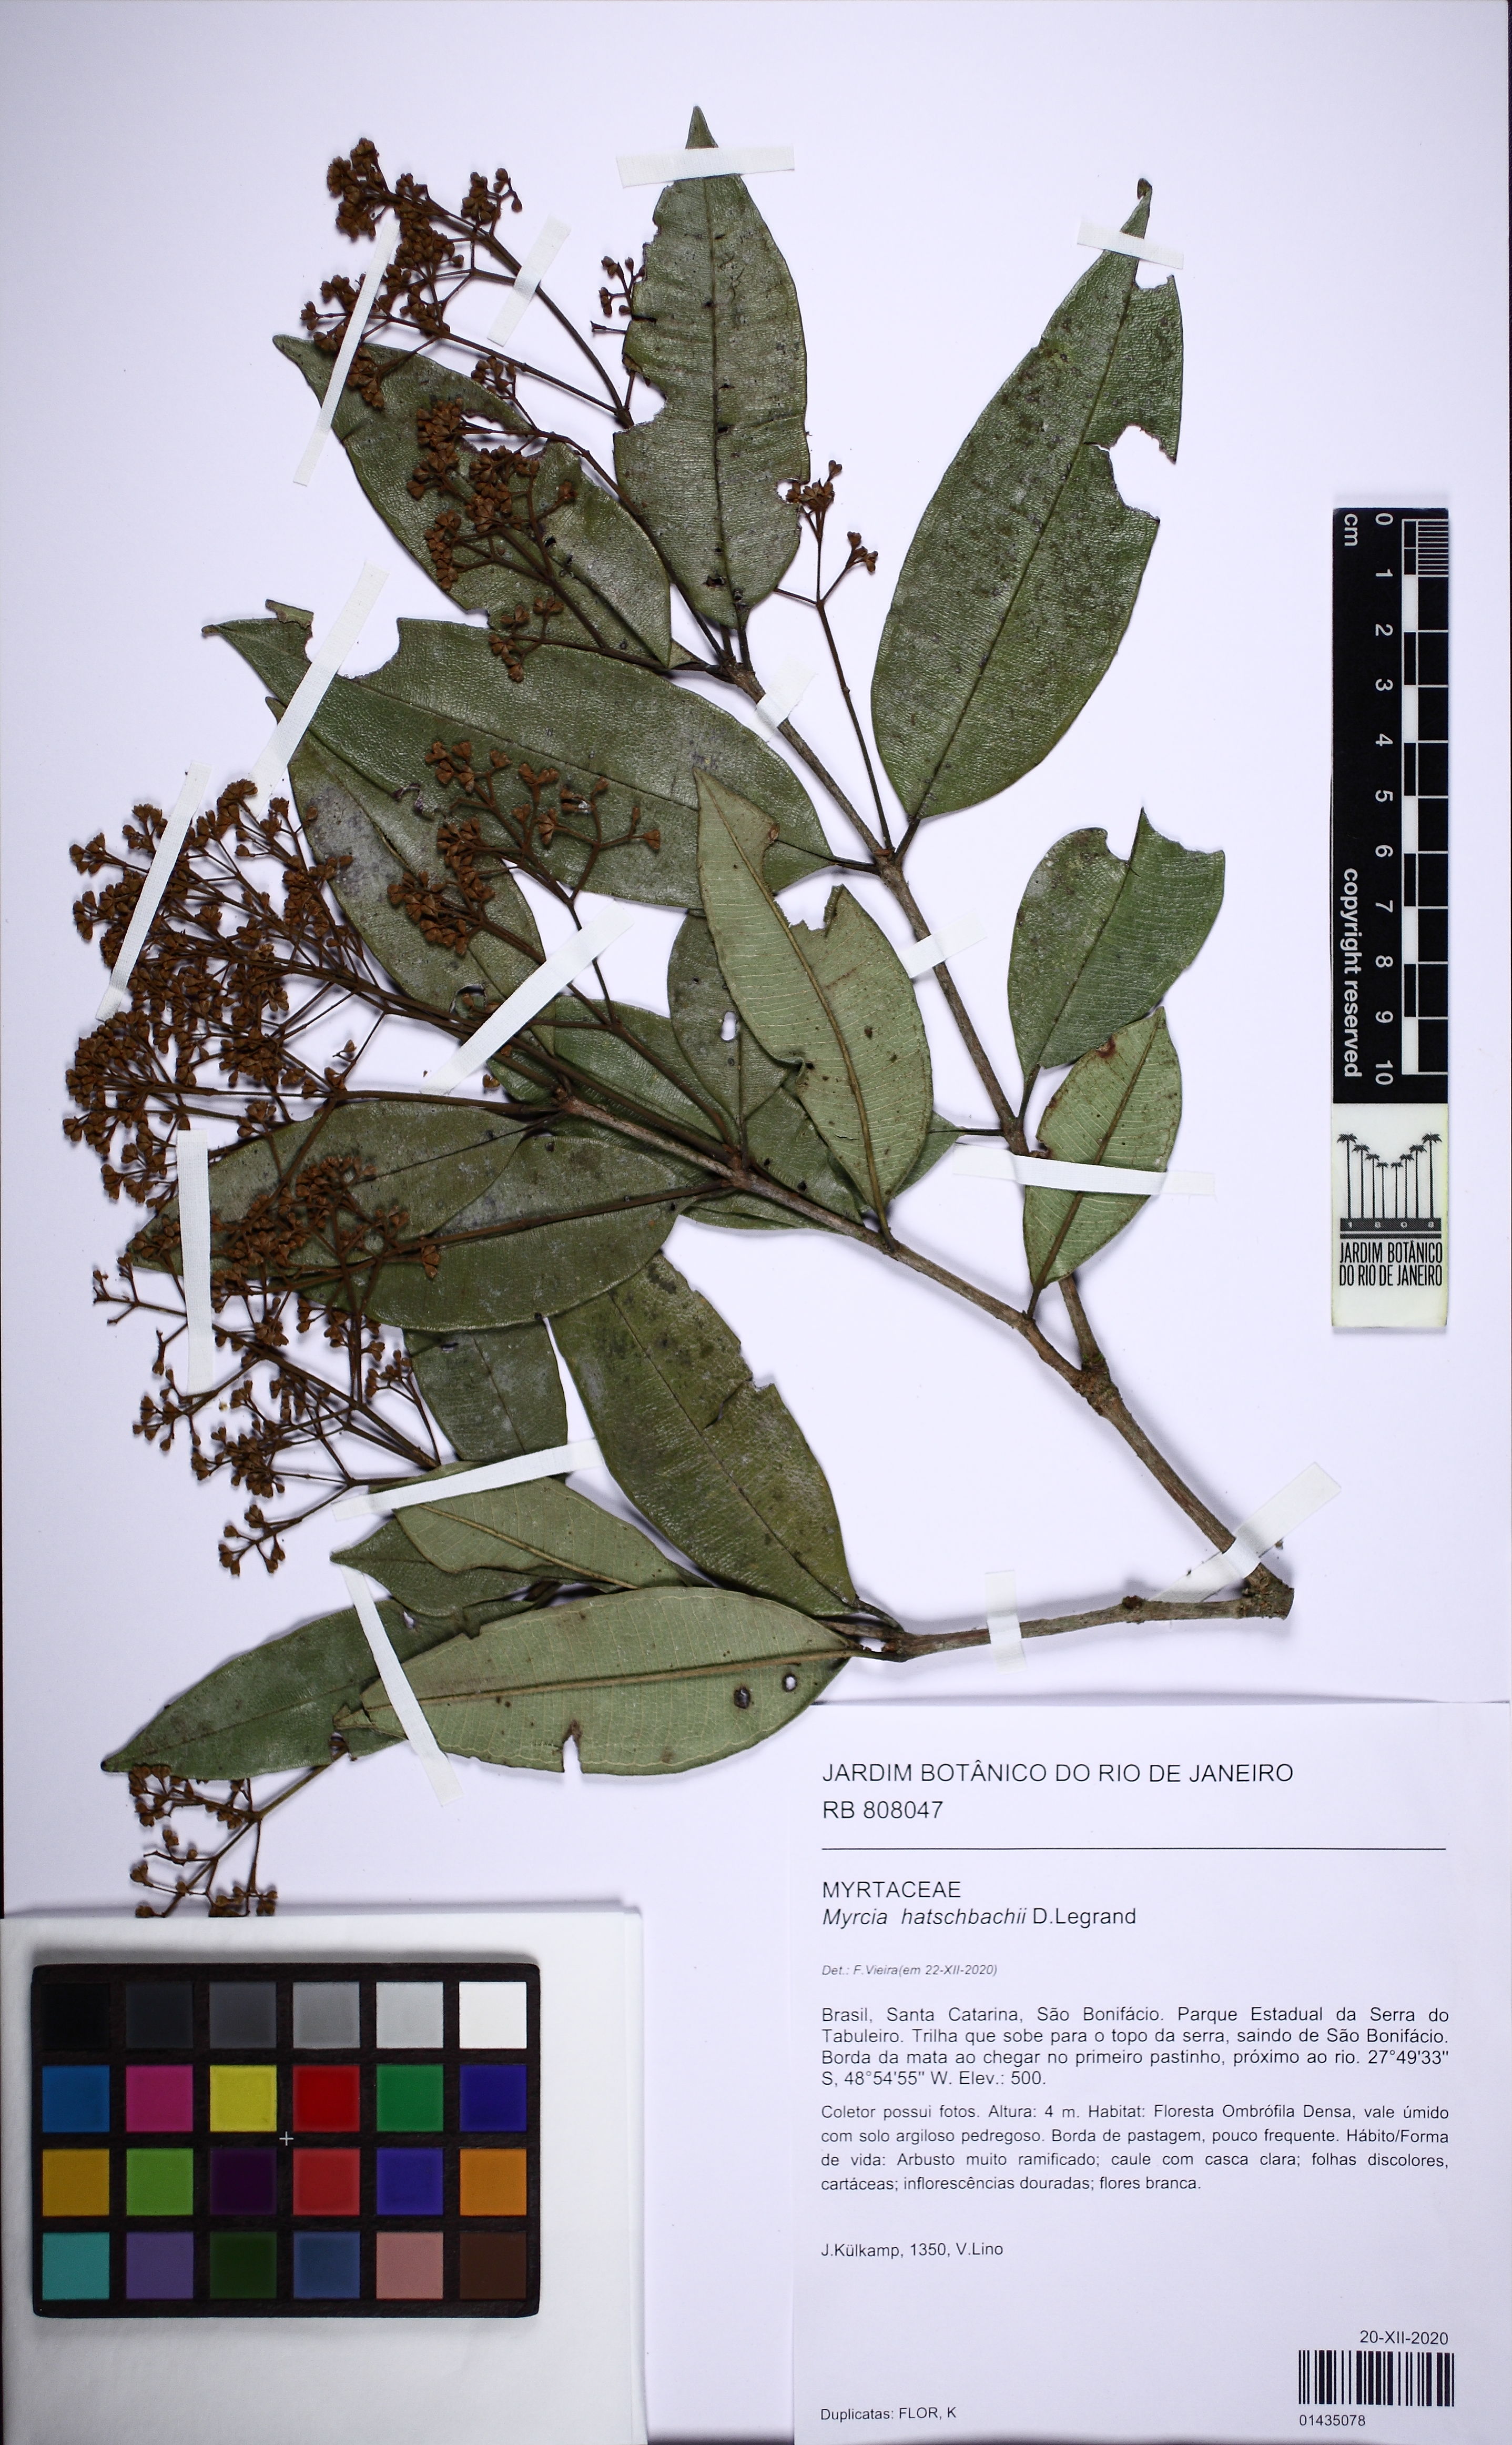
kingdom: Plantae
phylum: Tracheophyta
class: Magnoliopsida
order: Myrtales
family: Myrtaceae
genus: Myrcia
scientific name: Myrcia hatschbachii
